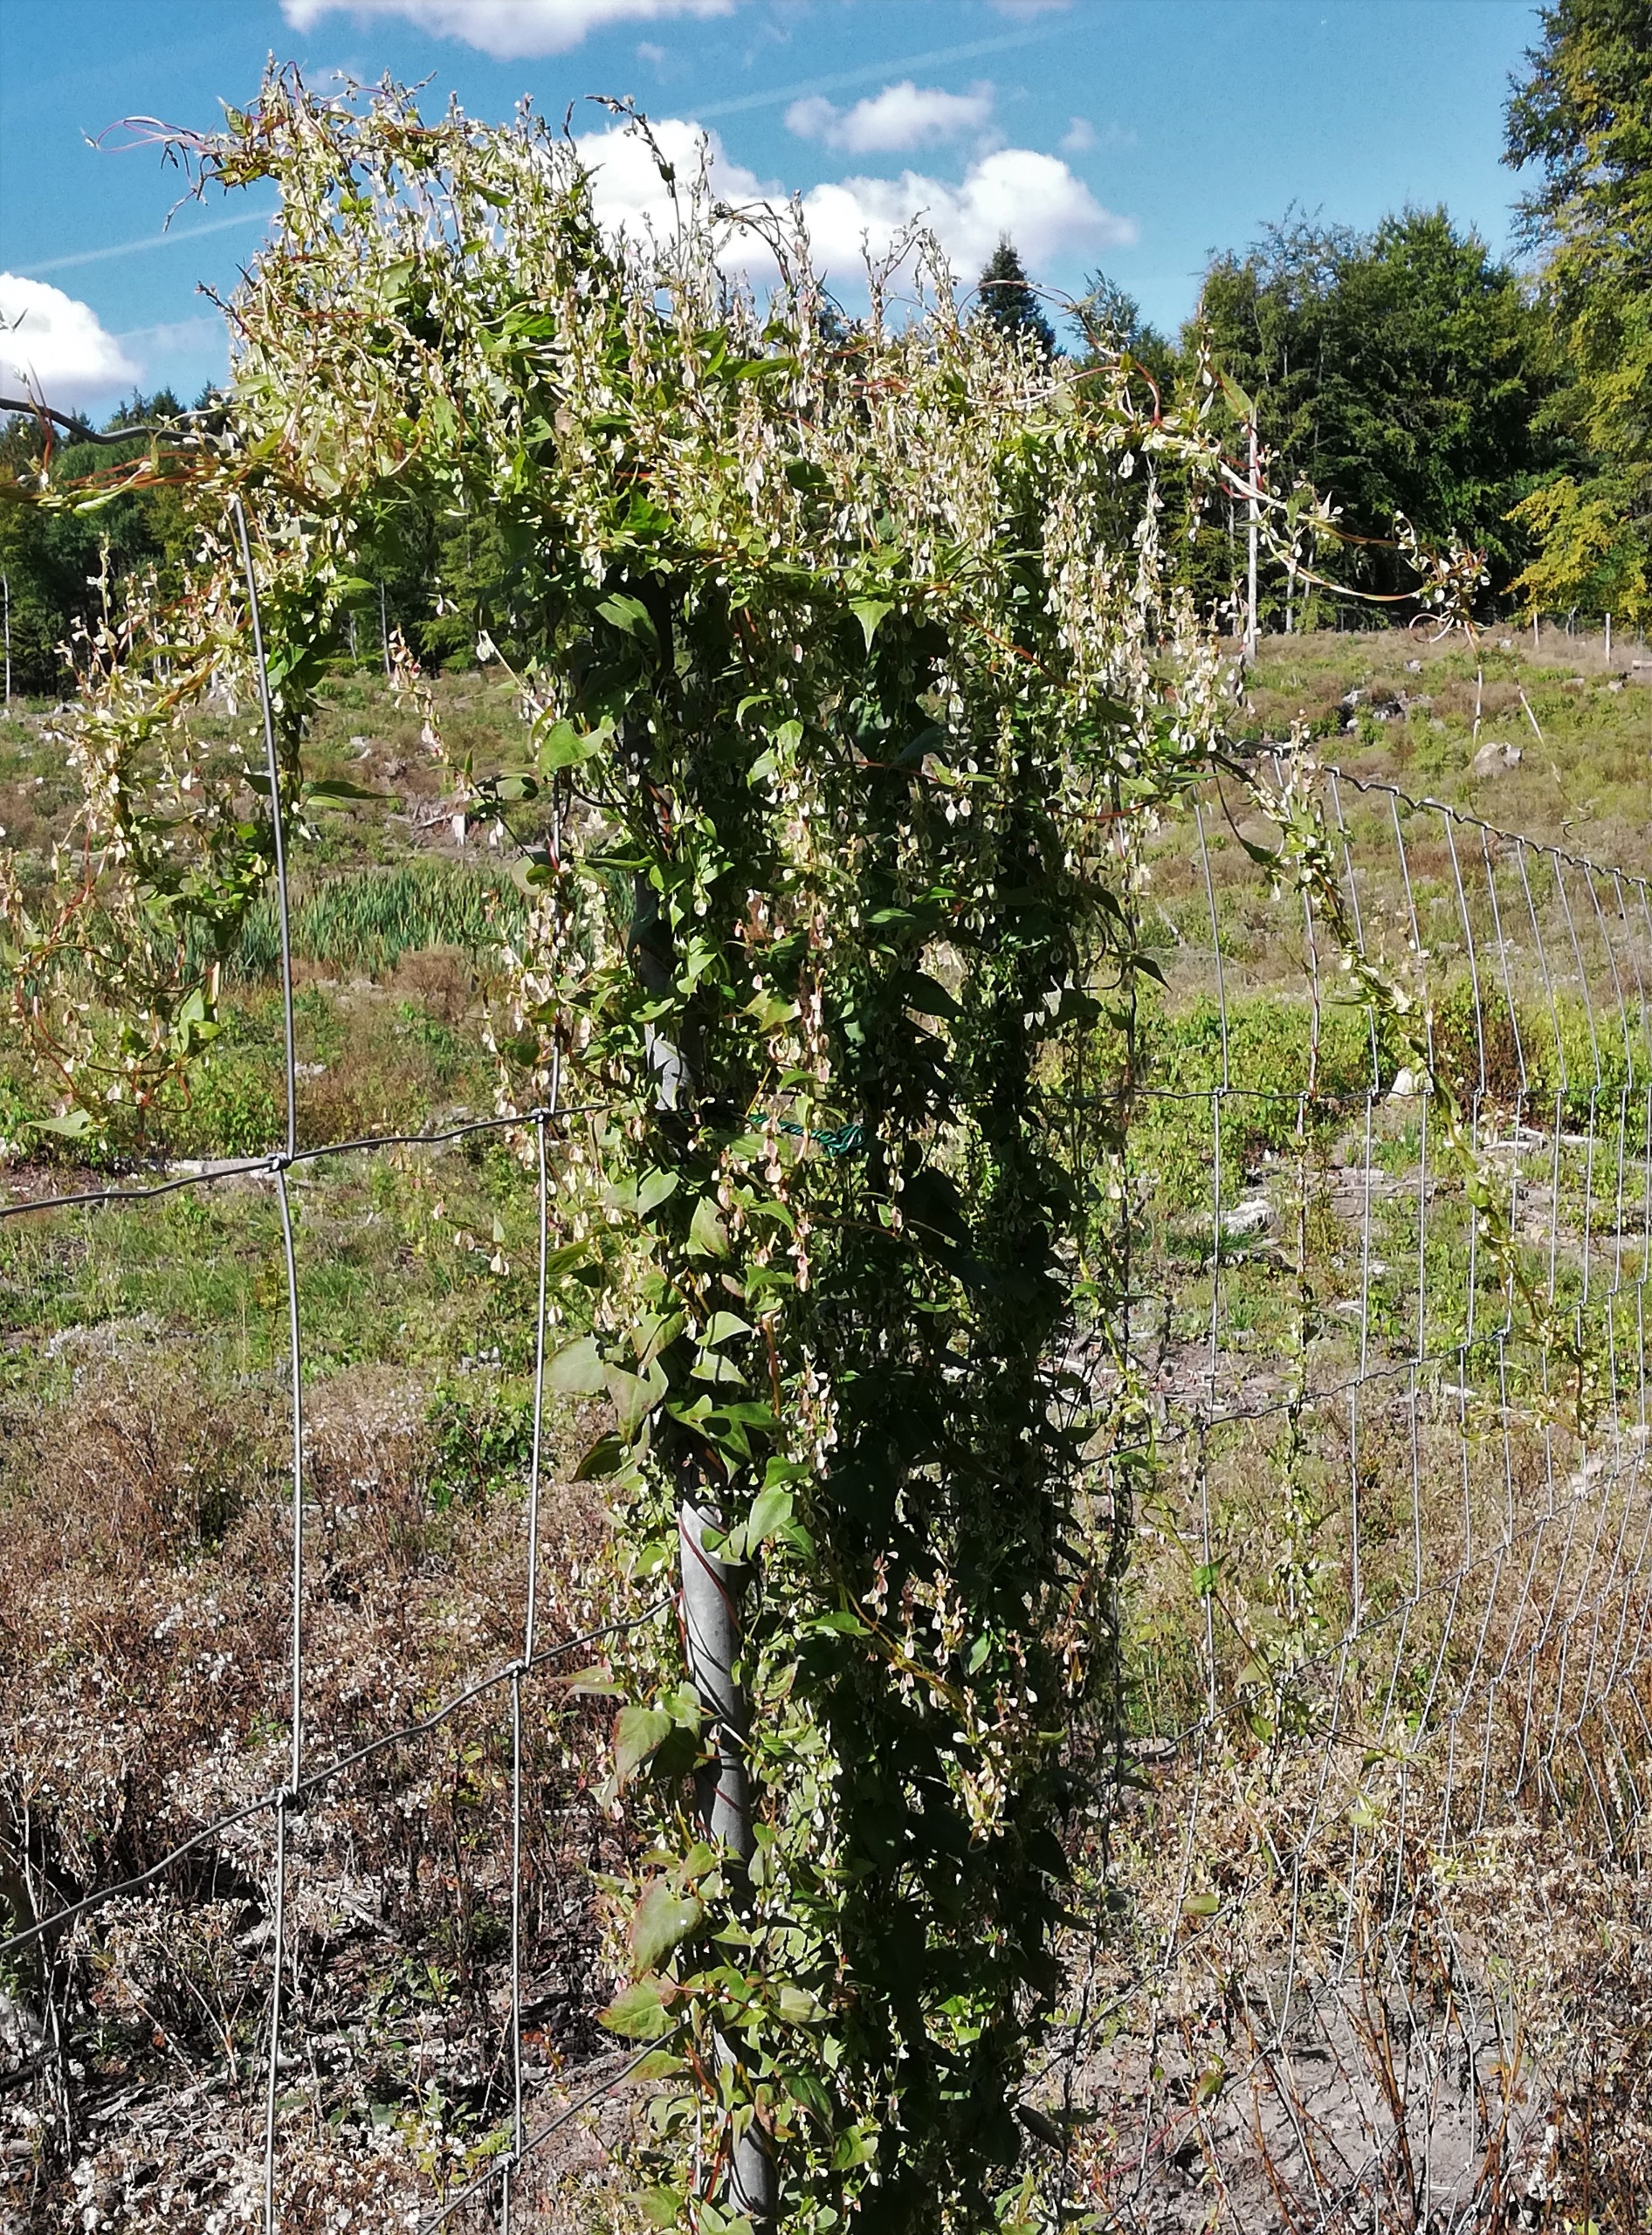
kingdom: Plantae
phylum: Tracheophyta
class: Magnoliopsida
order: Caryophyllales
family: Polygonaceae
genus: Fallopia
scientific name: Fallopia dumetorum
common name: Vinge-pileurt
